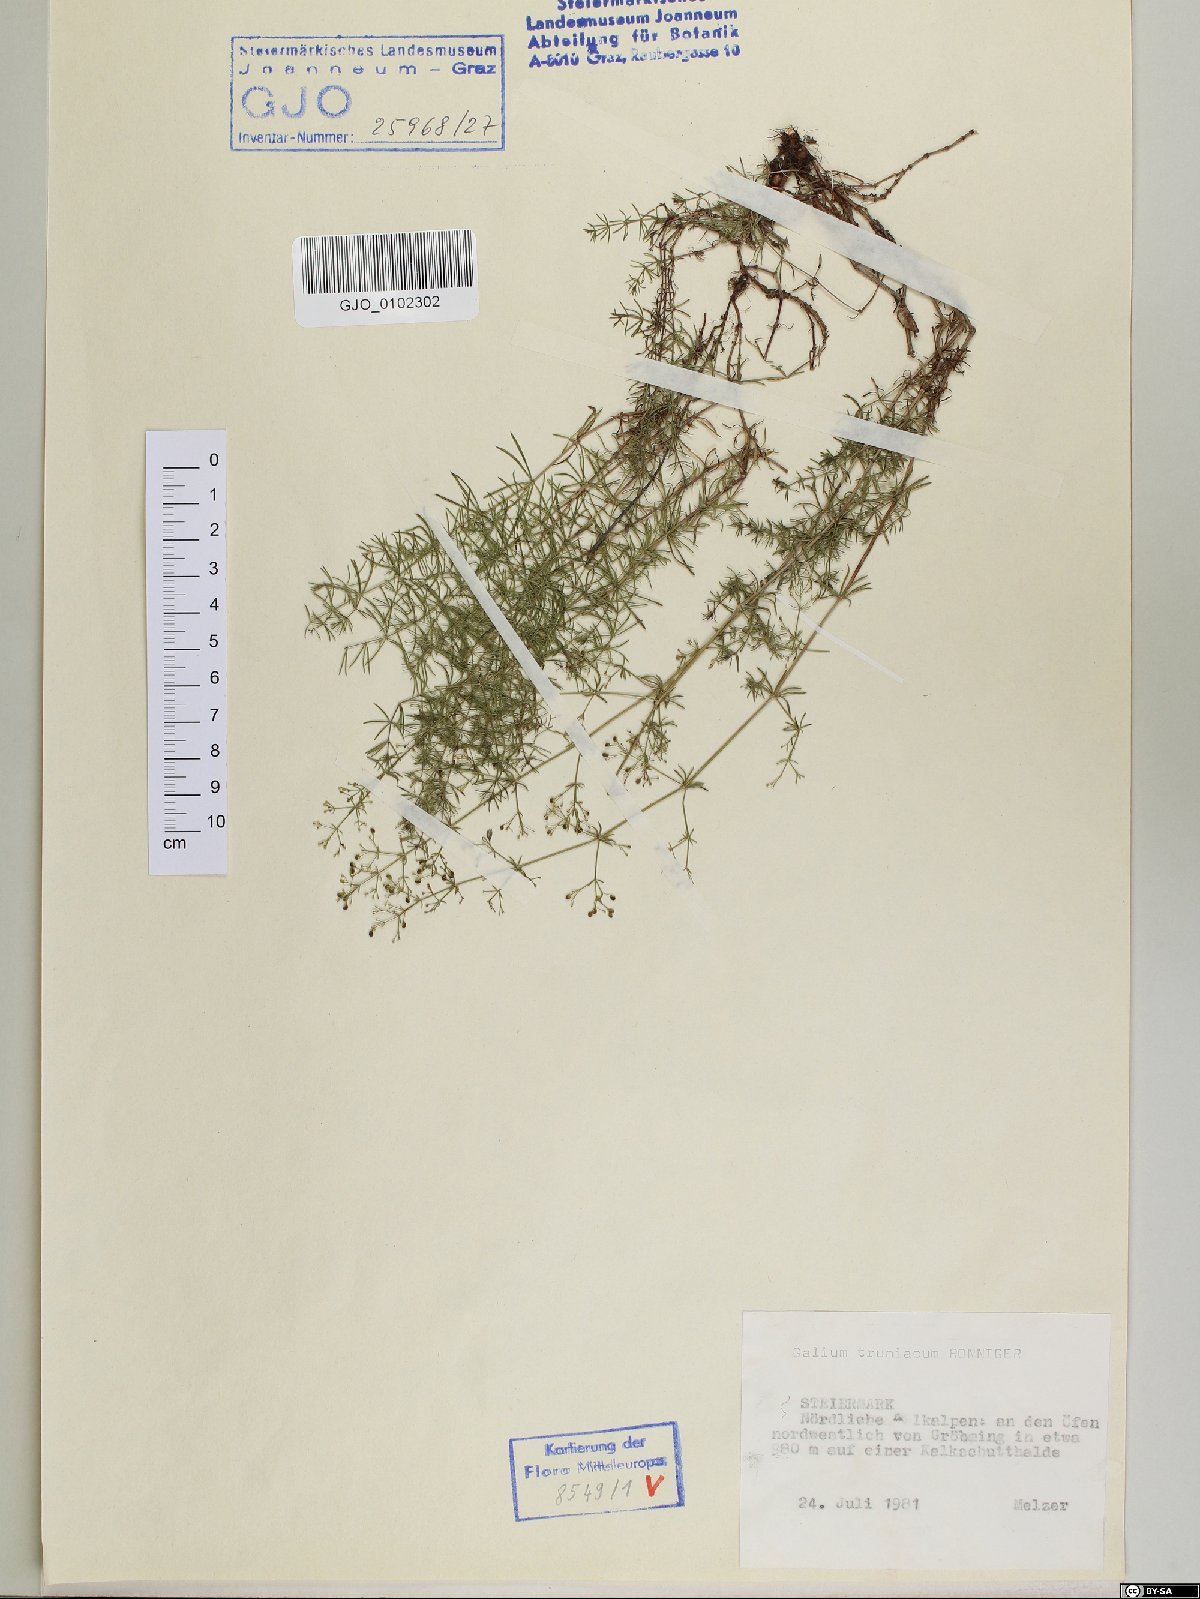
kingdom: Plantae
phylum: Tracheophyta
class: Magnoliopsida
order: Gentianales
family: Rubiaceae
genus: Galium
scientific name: Galium truniacum
